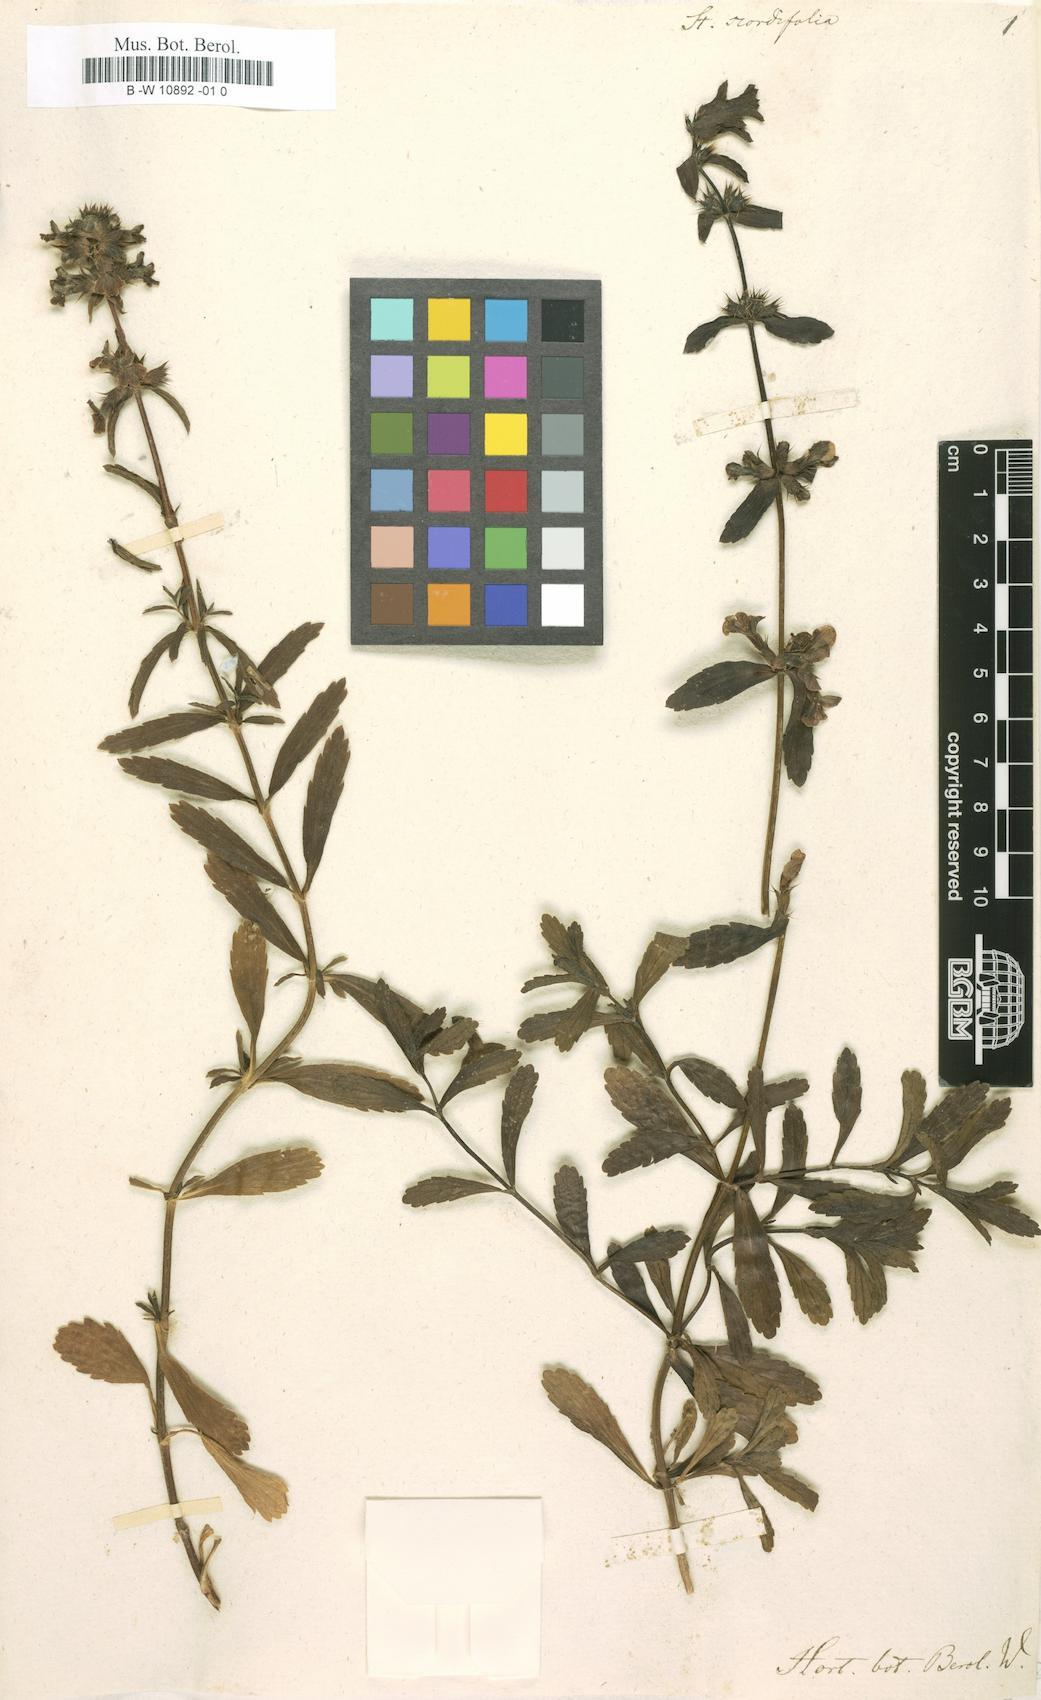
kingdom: Plantae
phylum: Tracheophyta
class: Magnoliopsida
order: Lamiales
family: Lamiaceae
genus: Stachys
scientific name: Stachys arenaria
